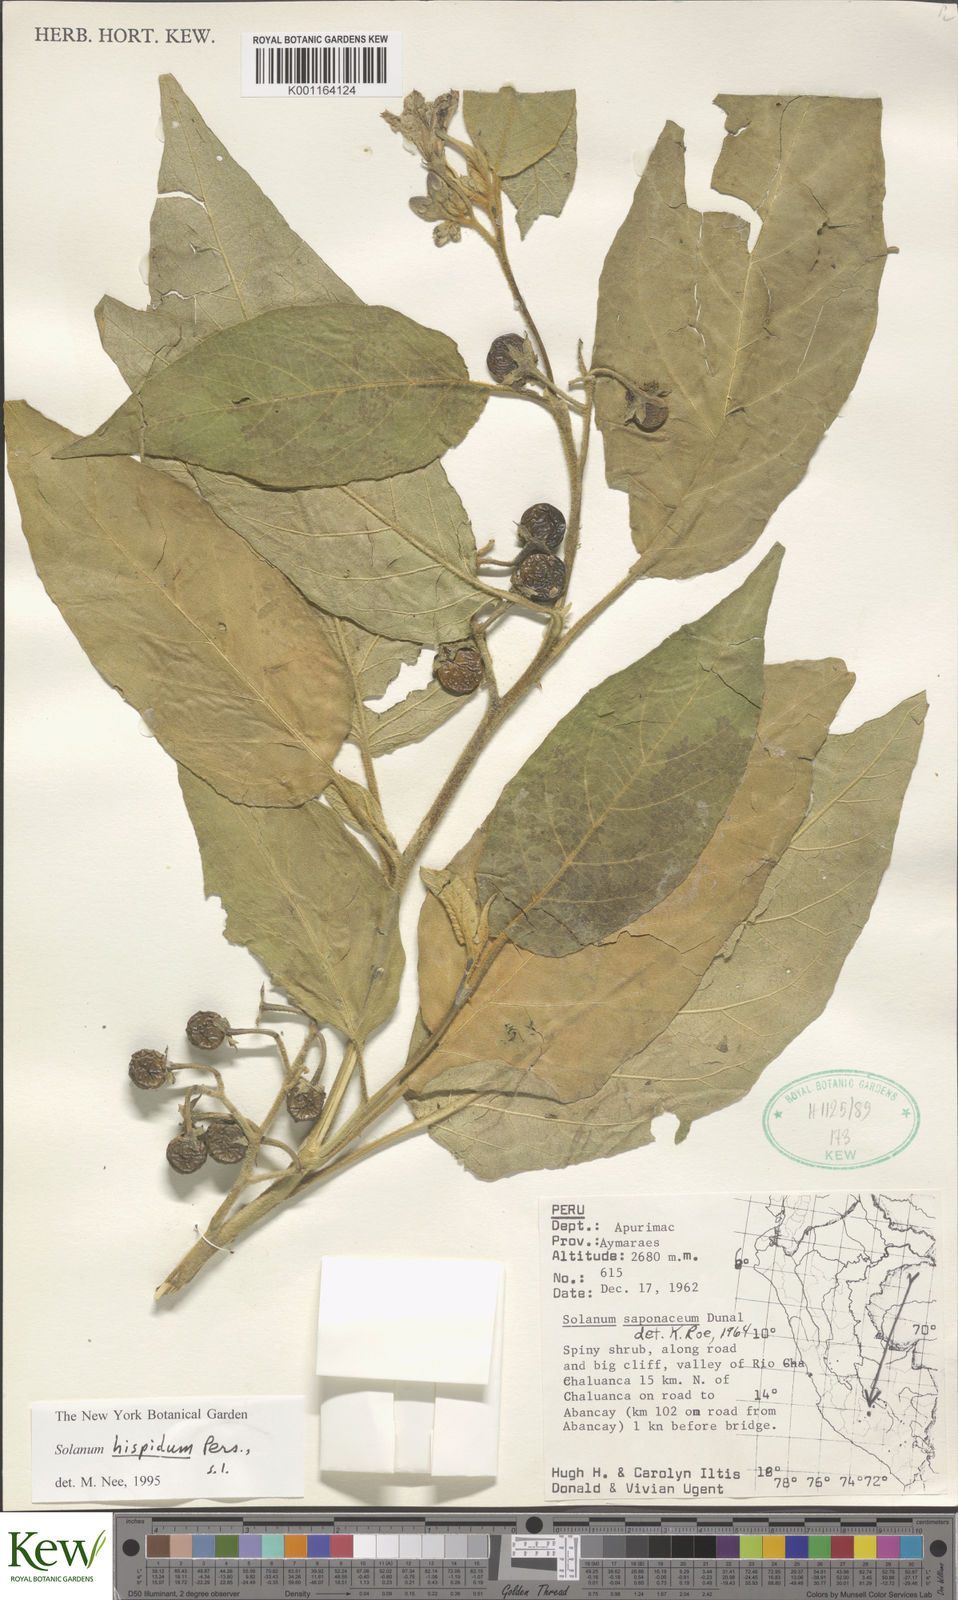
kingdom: Plantae
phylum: Tracheophyta
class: Magnoliopsida
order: Solanales
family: Solanaceae
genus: Solanum
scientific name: Solanum asperolanatum
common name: Devil's-fig
